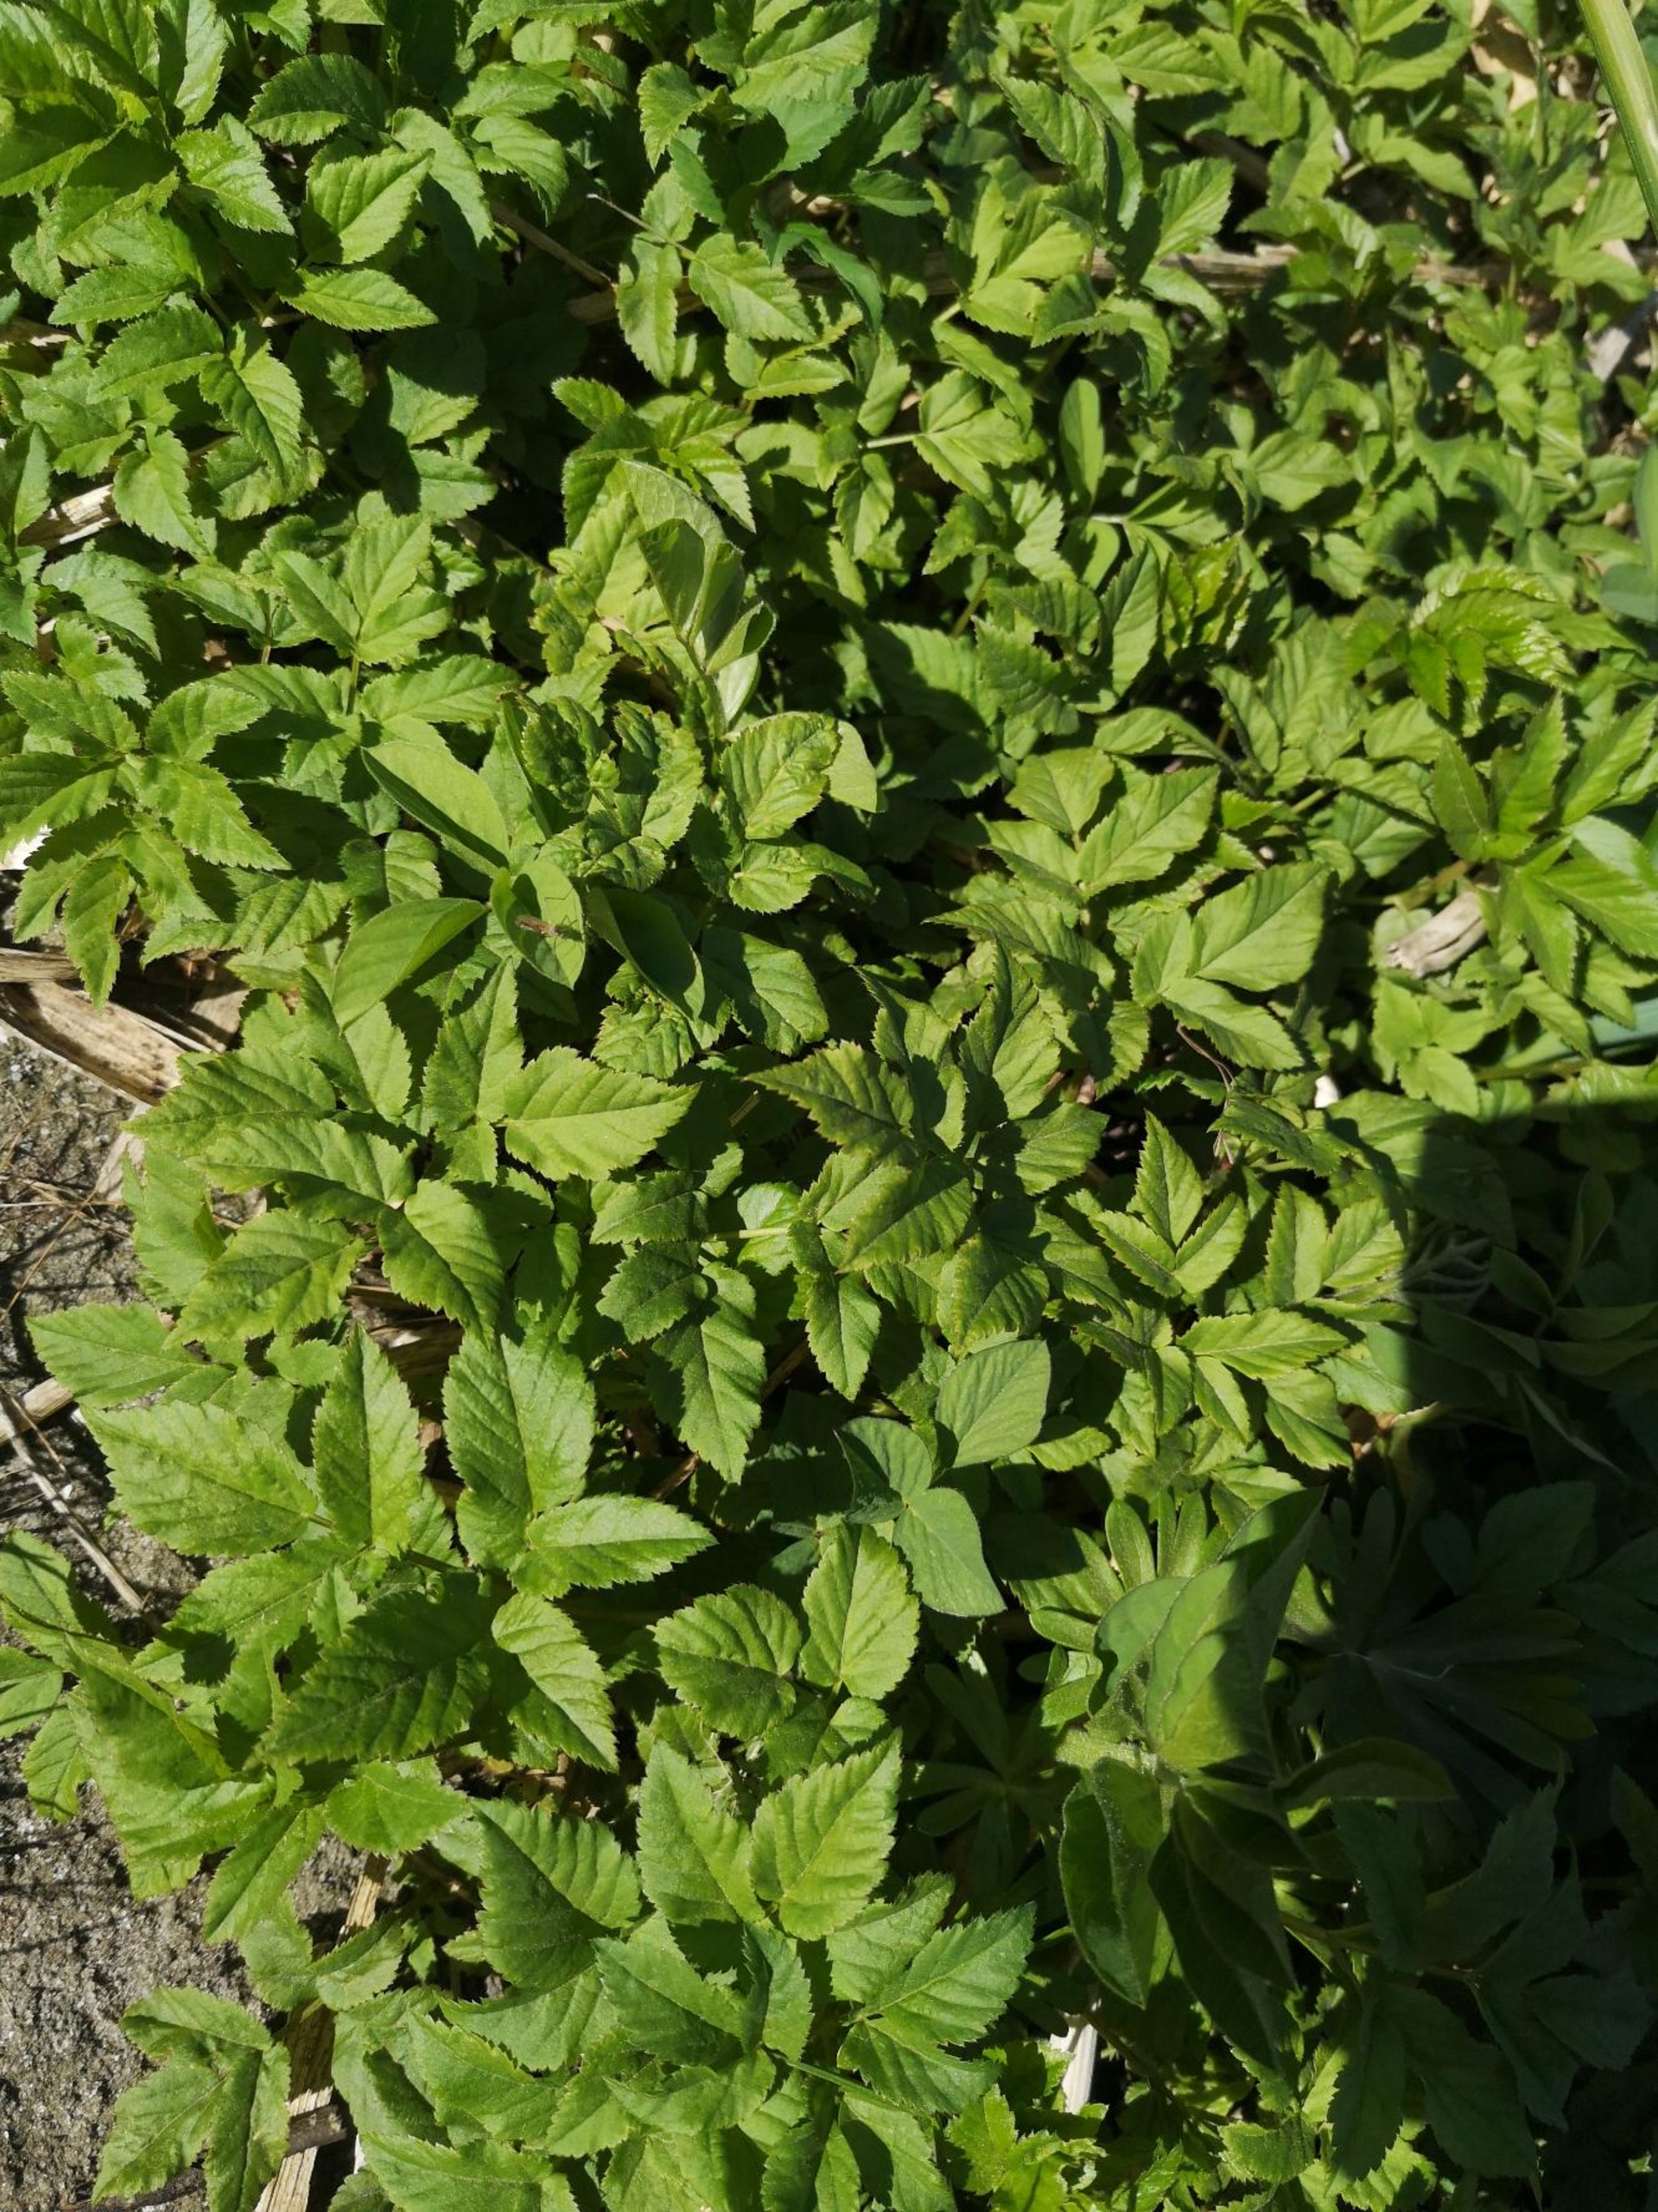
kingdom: Plantae
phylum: Tracheophyta
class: Magnoliopsida
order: Apiales
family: Apiaceae
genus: Aegopodium
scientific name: Aegopodium podagraria
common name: Skvalderkål
